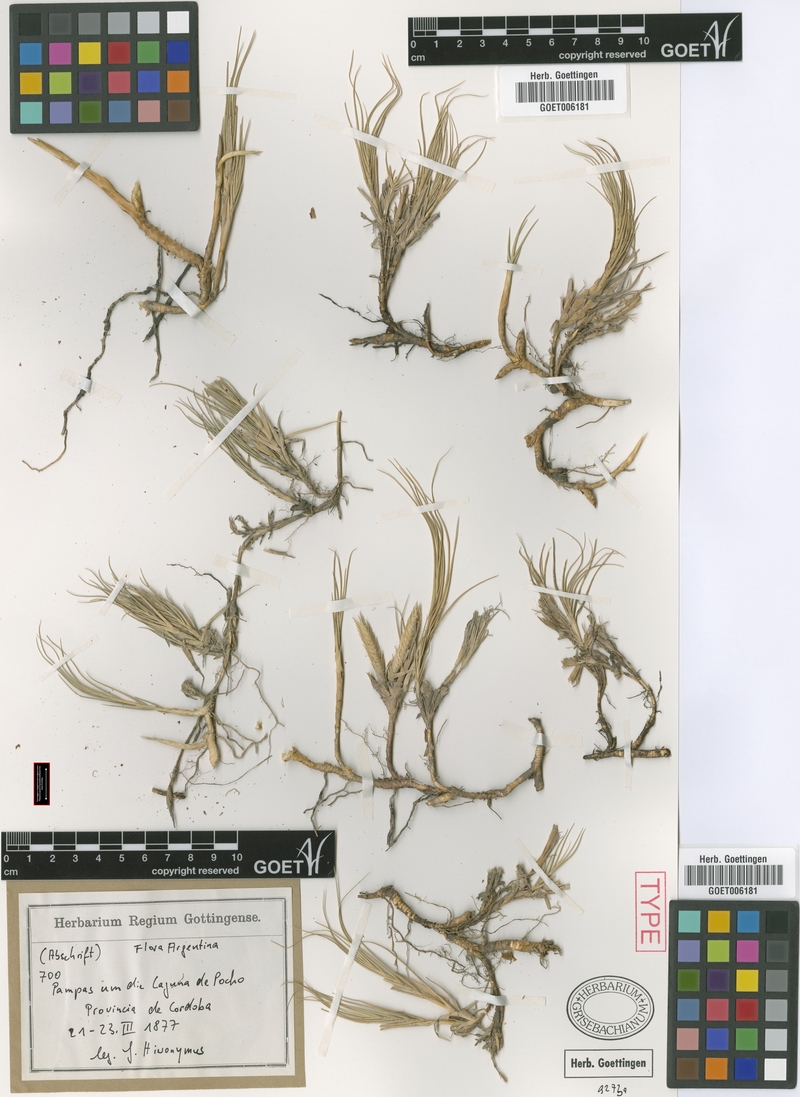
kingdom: Plantae
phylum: Tracheophyta
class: Liliopsida
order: Poales
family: Poaceae
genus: Distichlis
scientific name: Distichlis spicata
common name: Saltgrass
